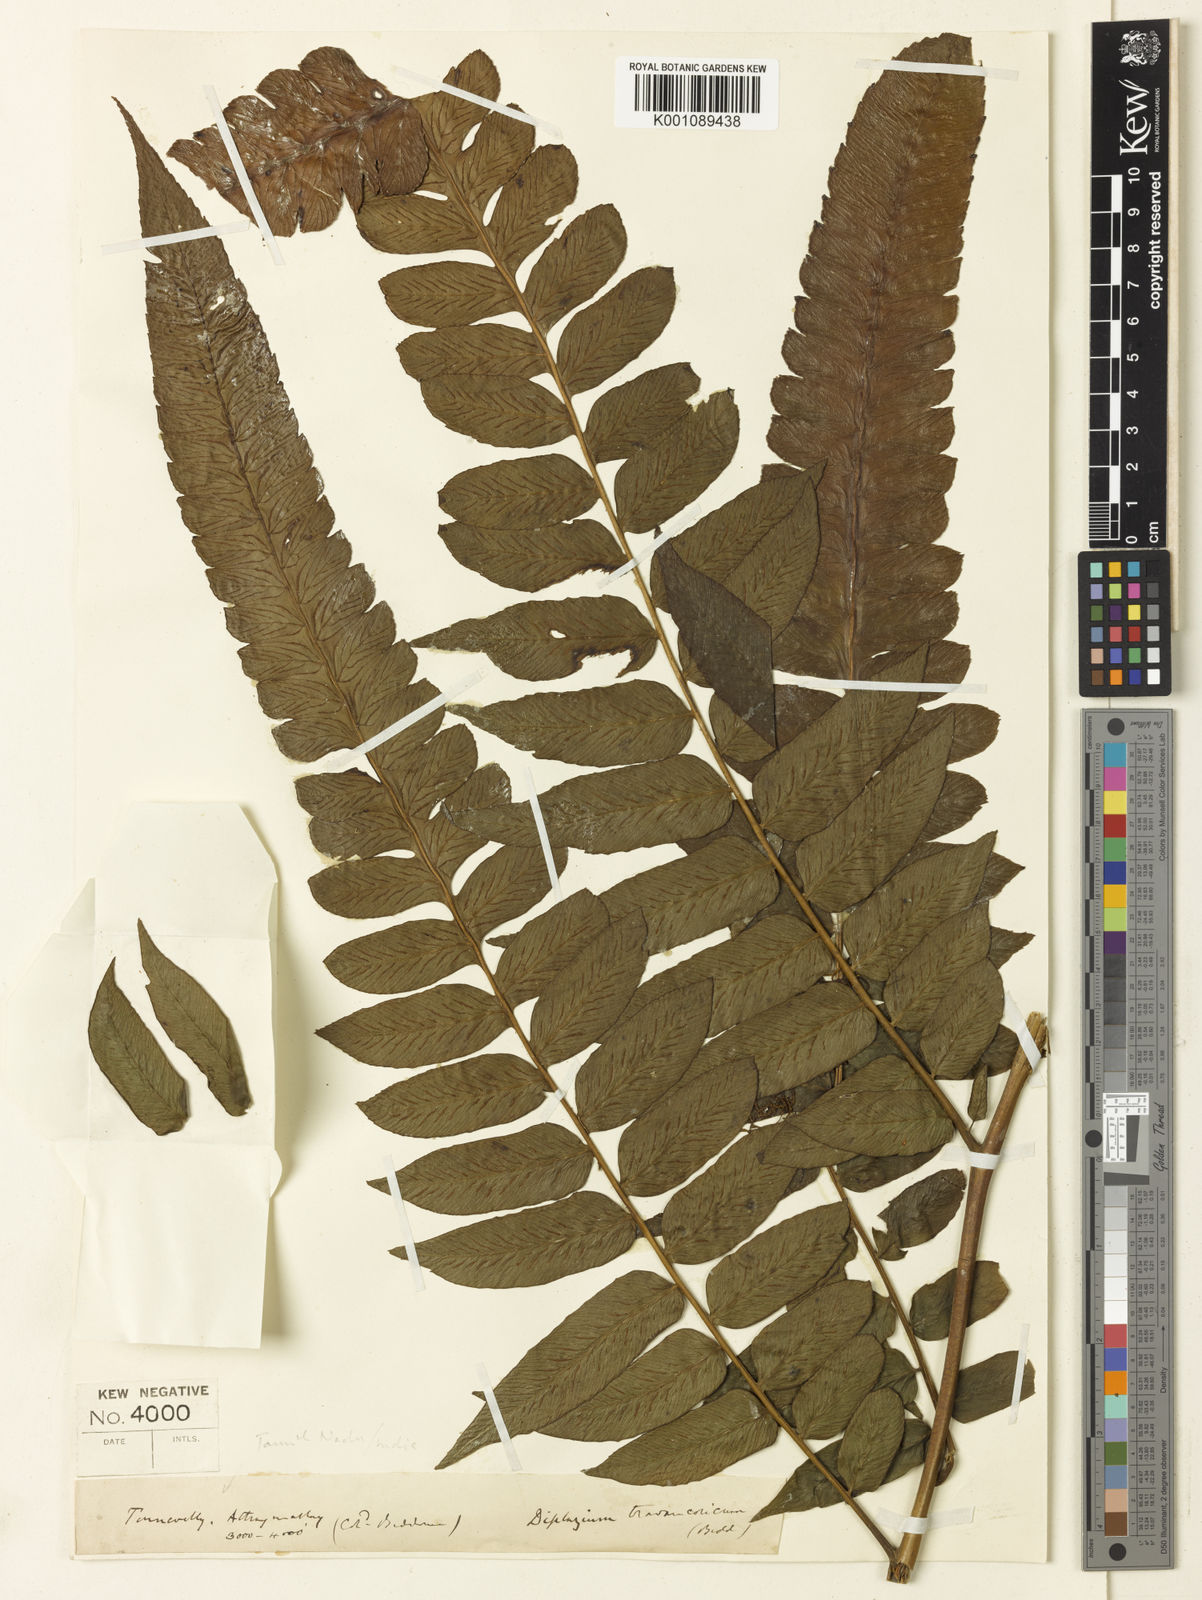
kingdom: Plantae
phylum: Tracheophyta
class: Polypodiopsida
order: Polypodiales
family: Athyriaceae
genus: Diplazium
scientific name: Diplazium travancoricum
